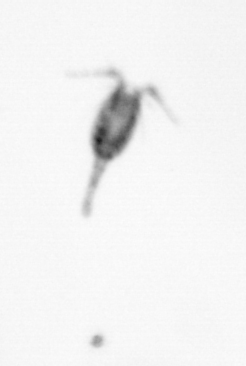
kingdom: Animalia
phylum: Arthropoda
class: Copepoda
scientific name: Copepoda
